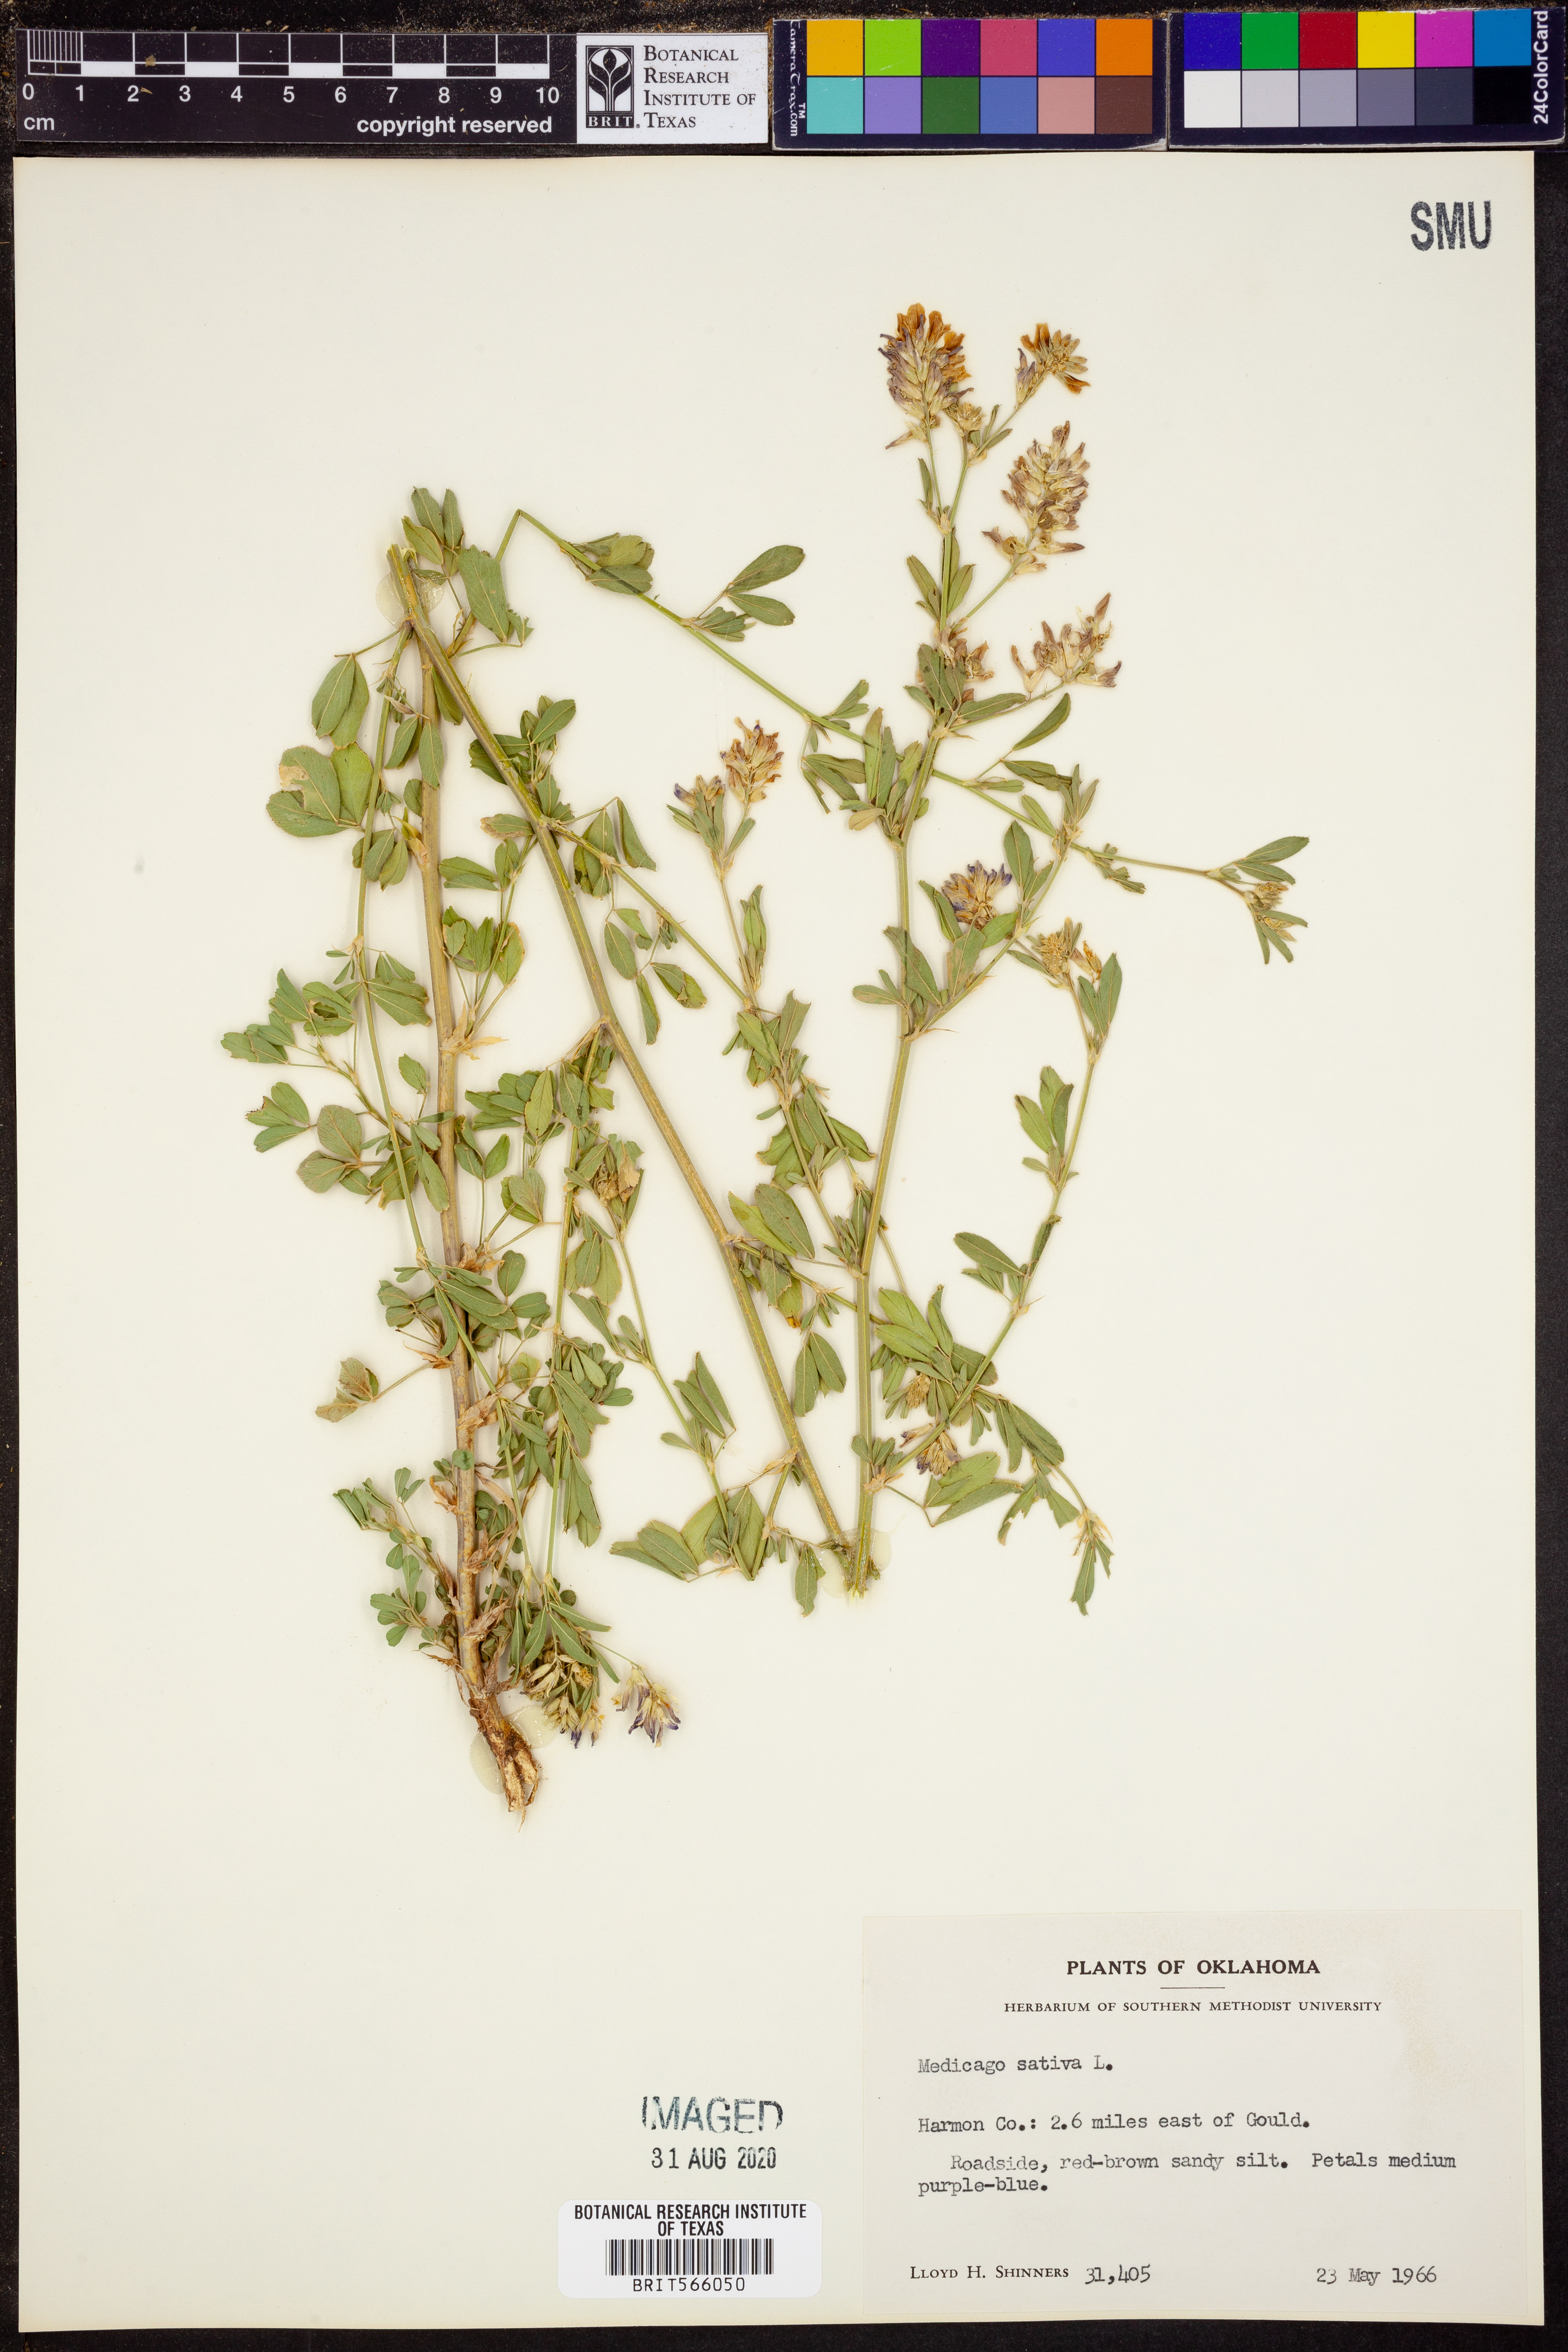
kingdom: Plantae
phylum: Tracheophyta
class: Magnoliopsida
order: Fabales
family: Fabaceae
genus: Medicago
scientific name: Medicago sativa
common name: Alfalfa
